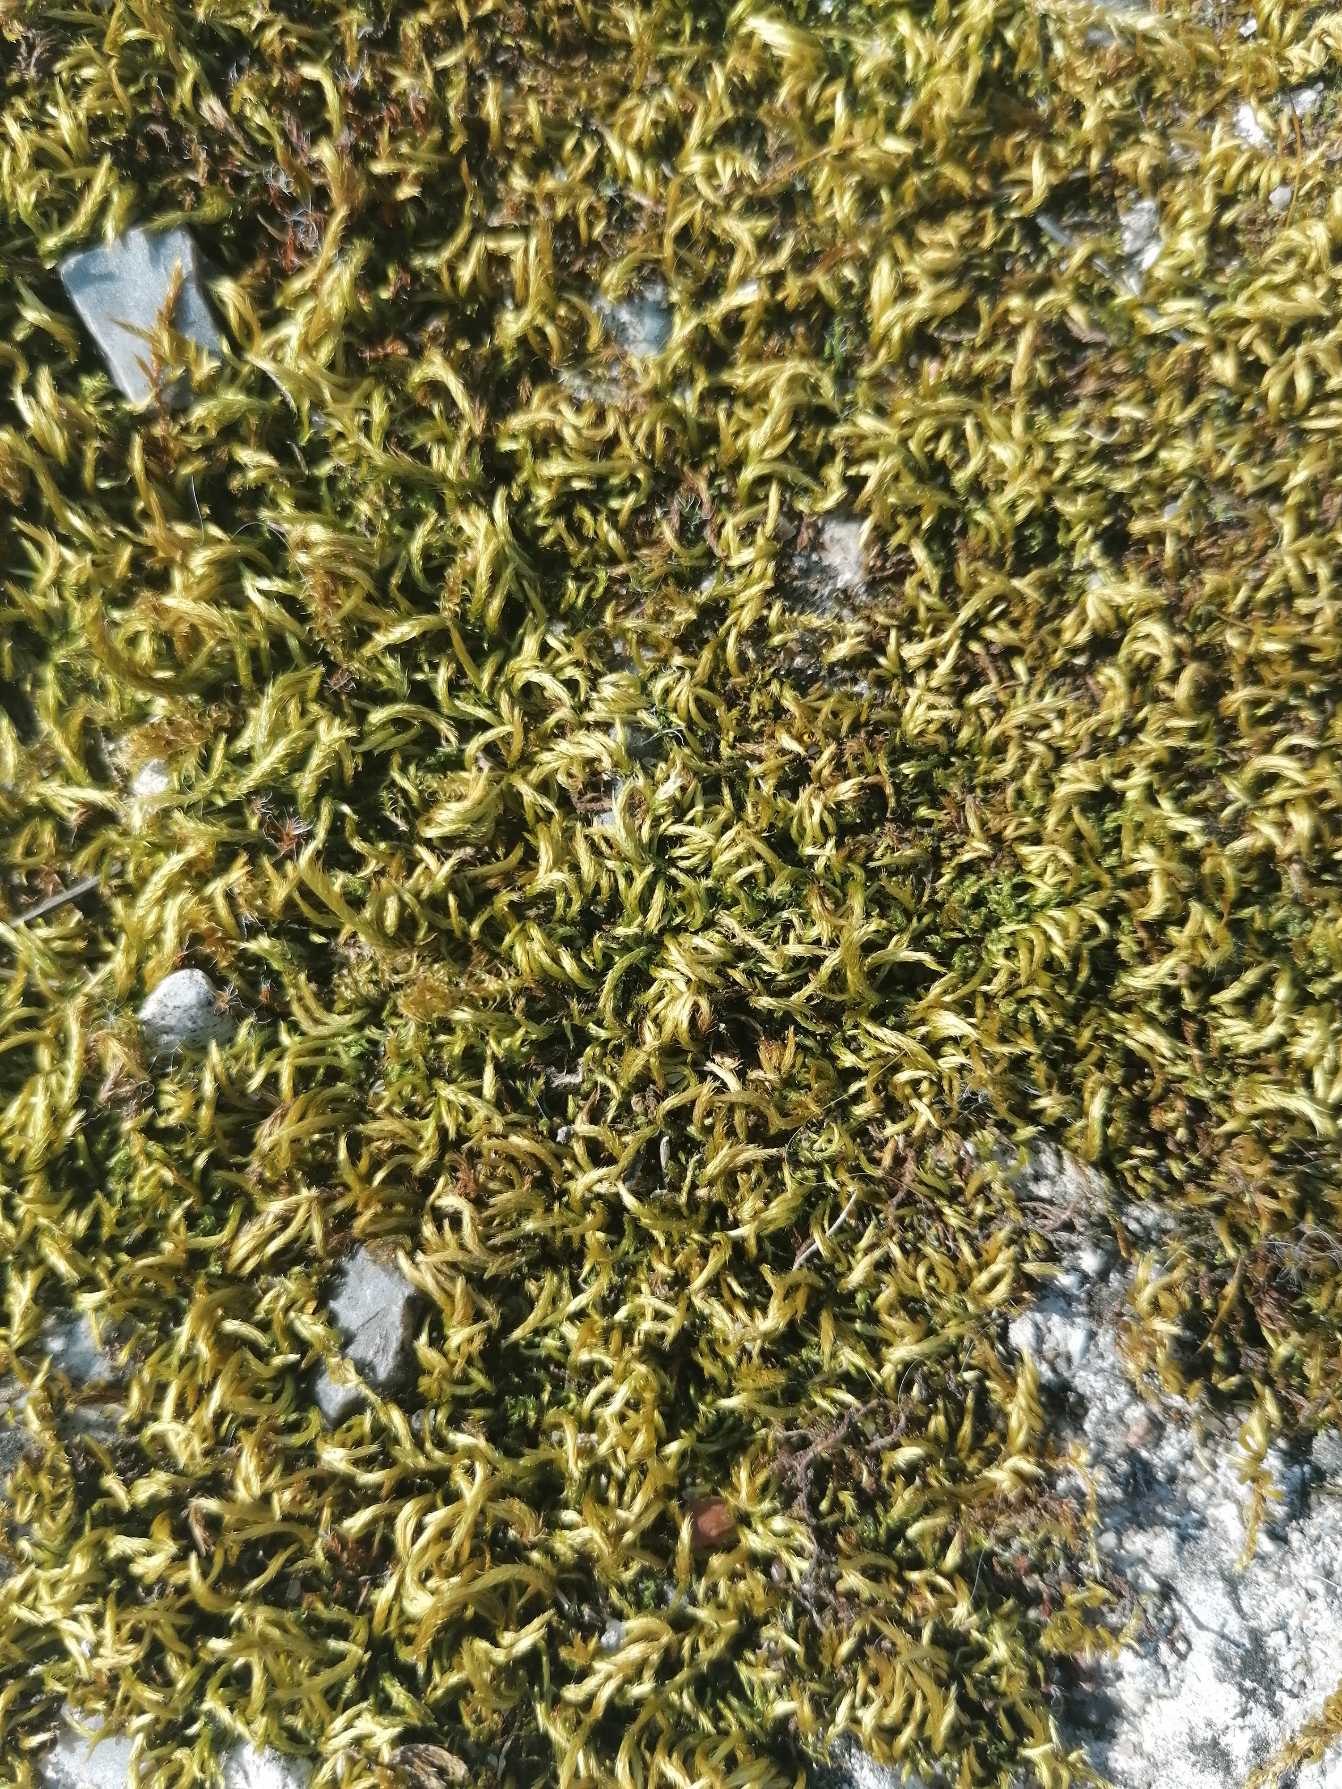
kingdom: Plantae
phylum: Bryophyta
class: Bryopsida
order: Hypnales
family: Brachytheciaceae
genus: Homalothecium
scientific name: Homalothecium sericeum
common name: Krybende silkemos
